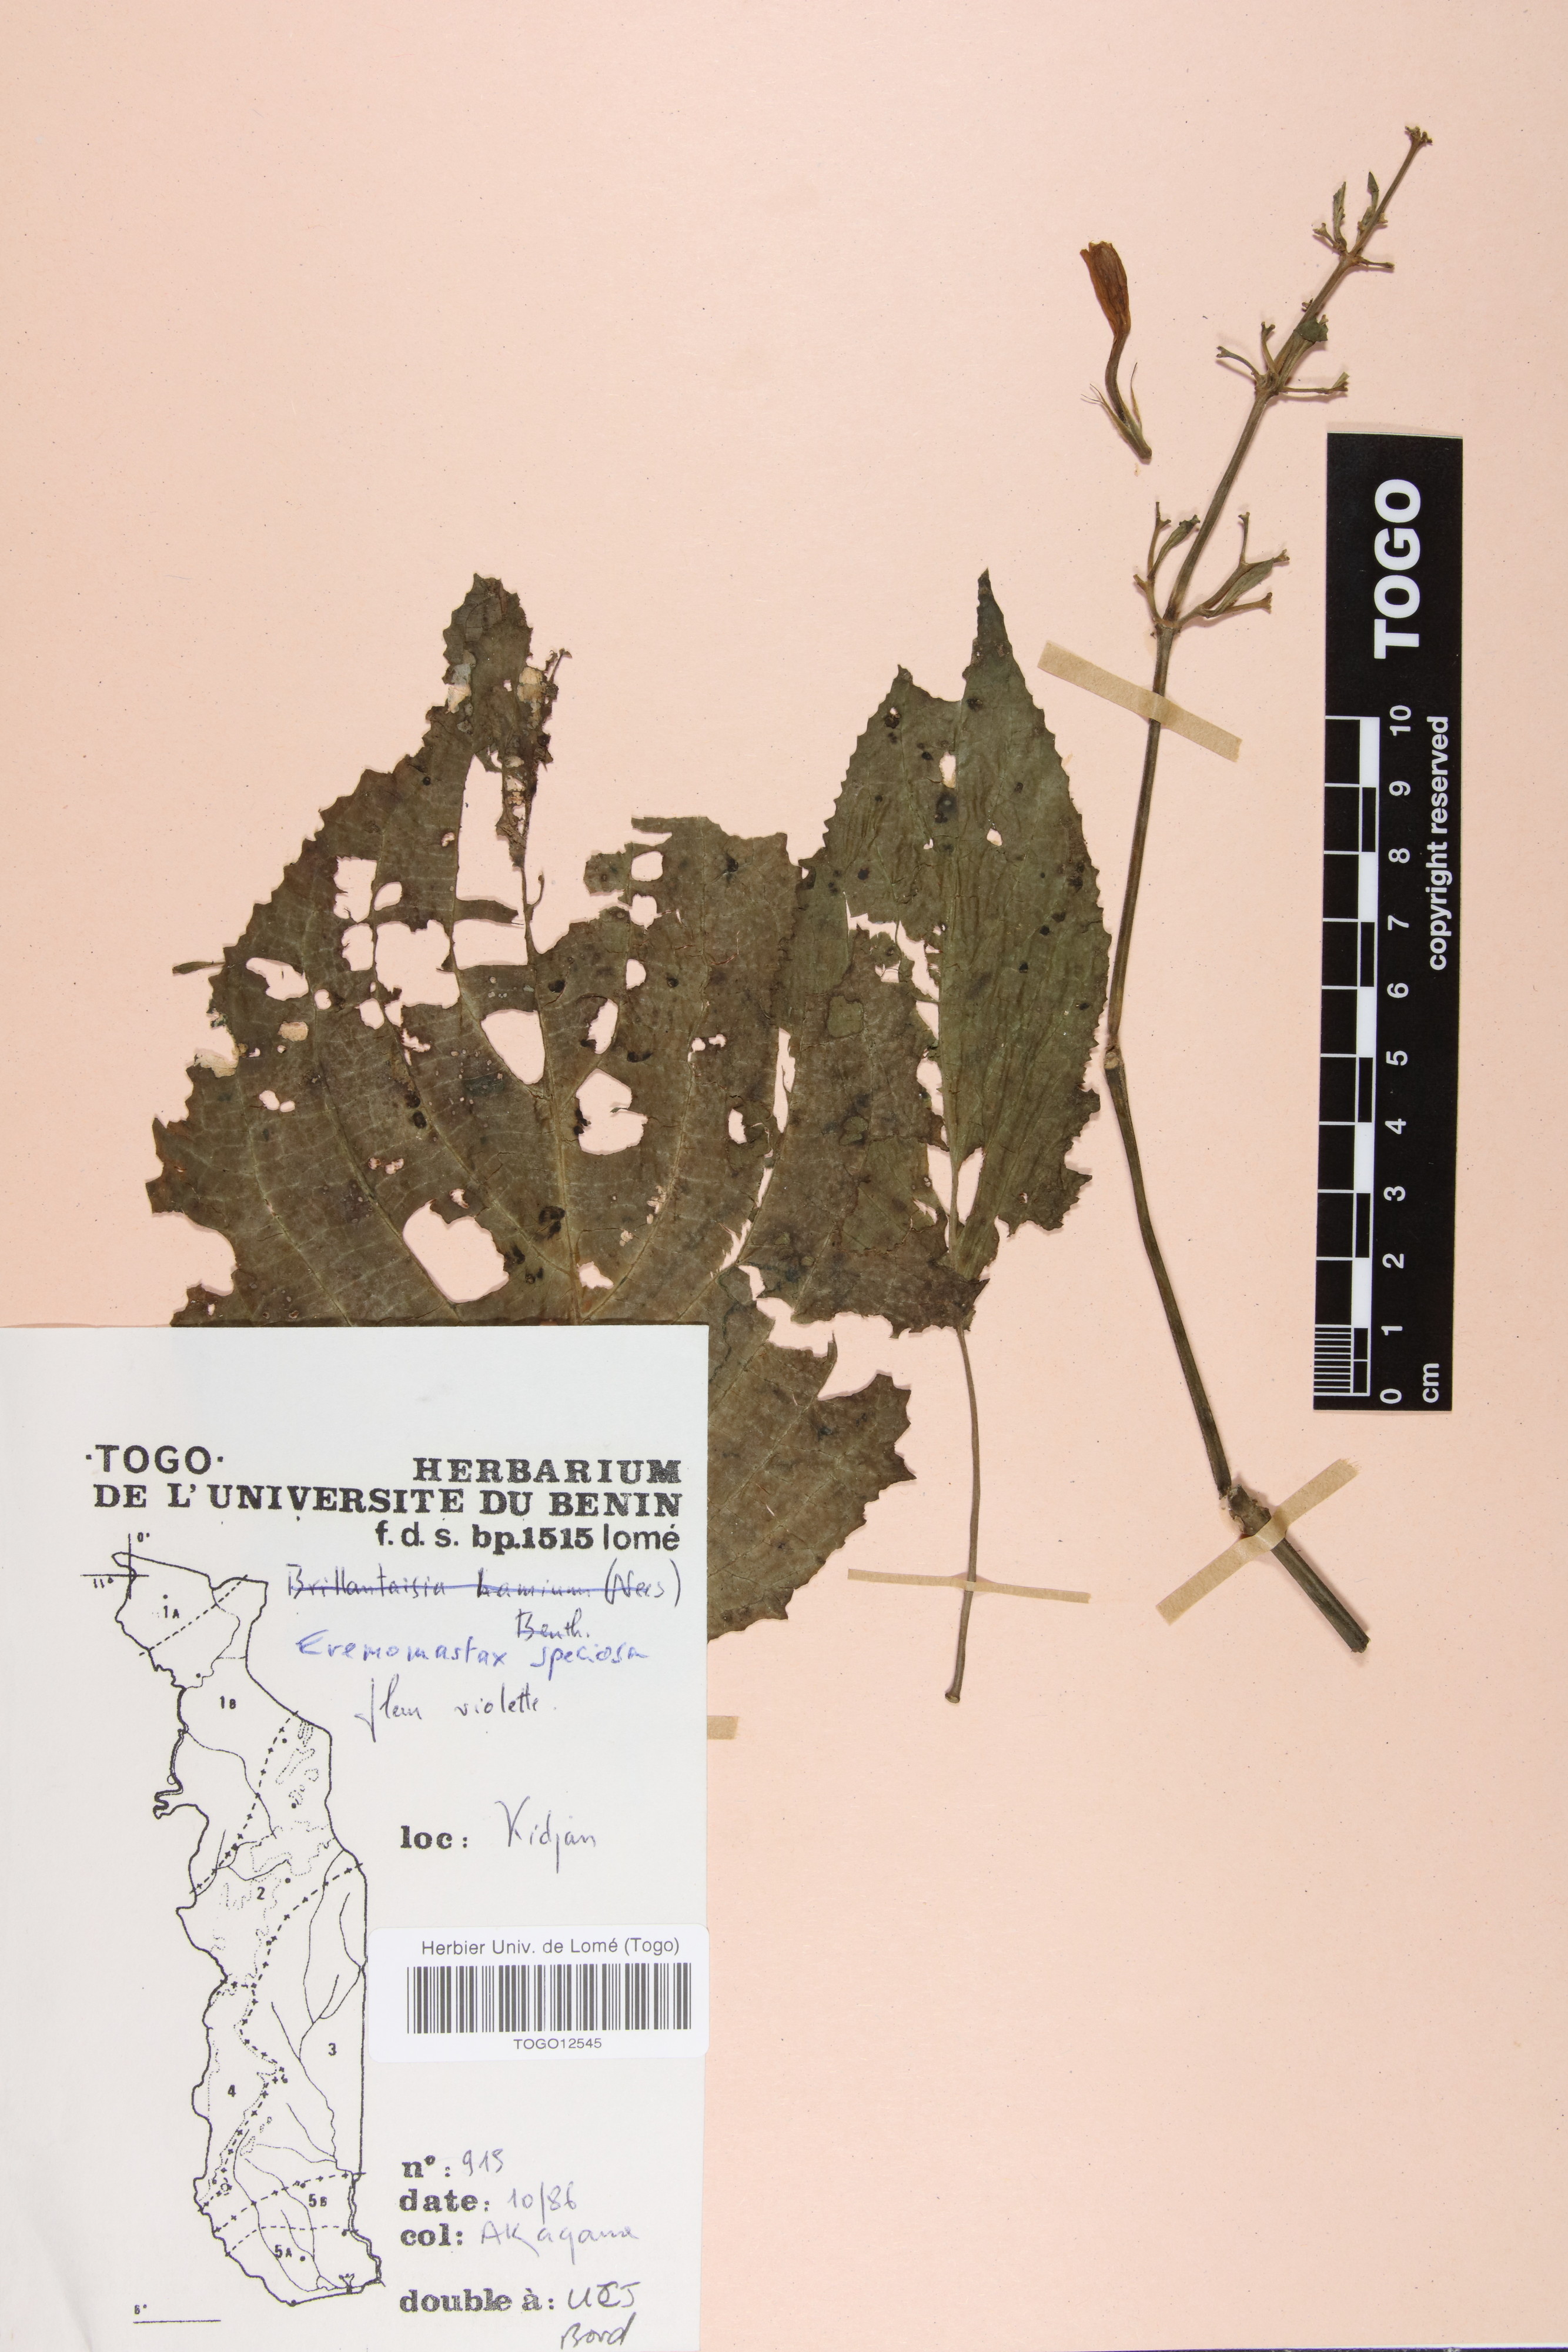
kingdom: Plantae
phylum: Tracheophyta
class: Magnoliopsida
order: Lamiales
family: Acanthaceae
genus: Eremomastax
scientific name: Eremomastax speciosa
